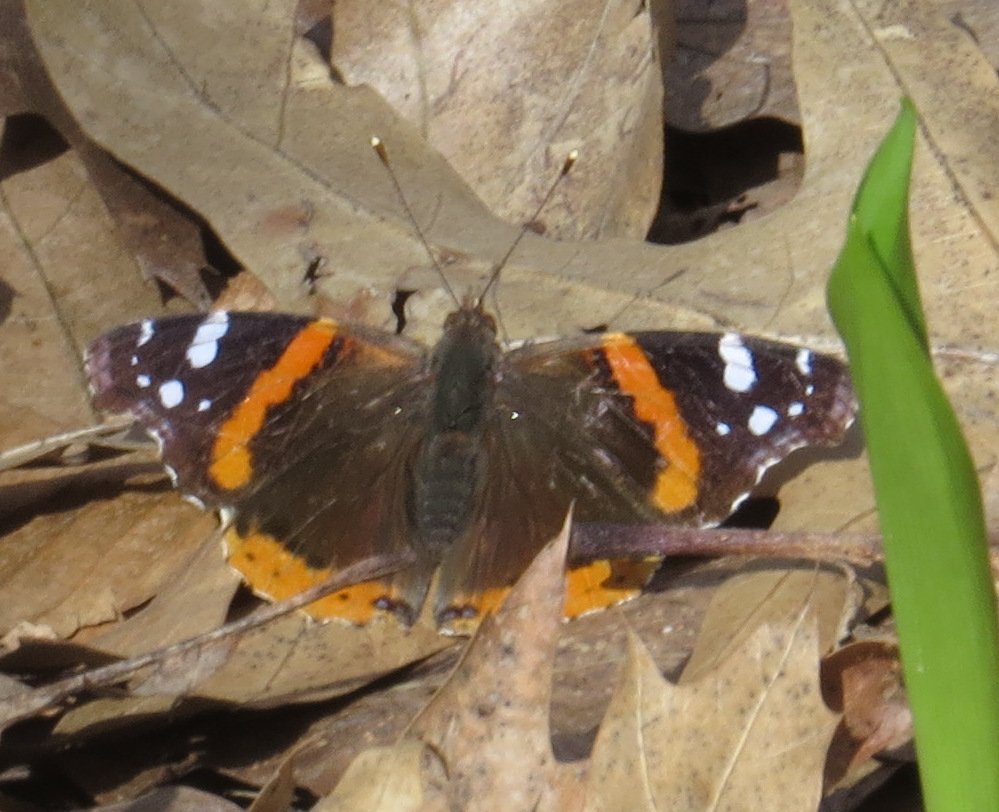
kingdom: Animalia
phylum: Arthropoda
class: Insecta
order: Lepidoptera
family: Nymphalidae
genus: Vanessa
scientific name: Vanessa atalanta
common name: Red Admiral
